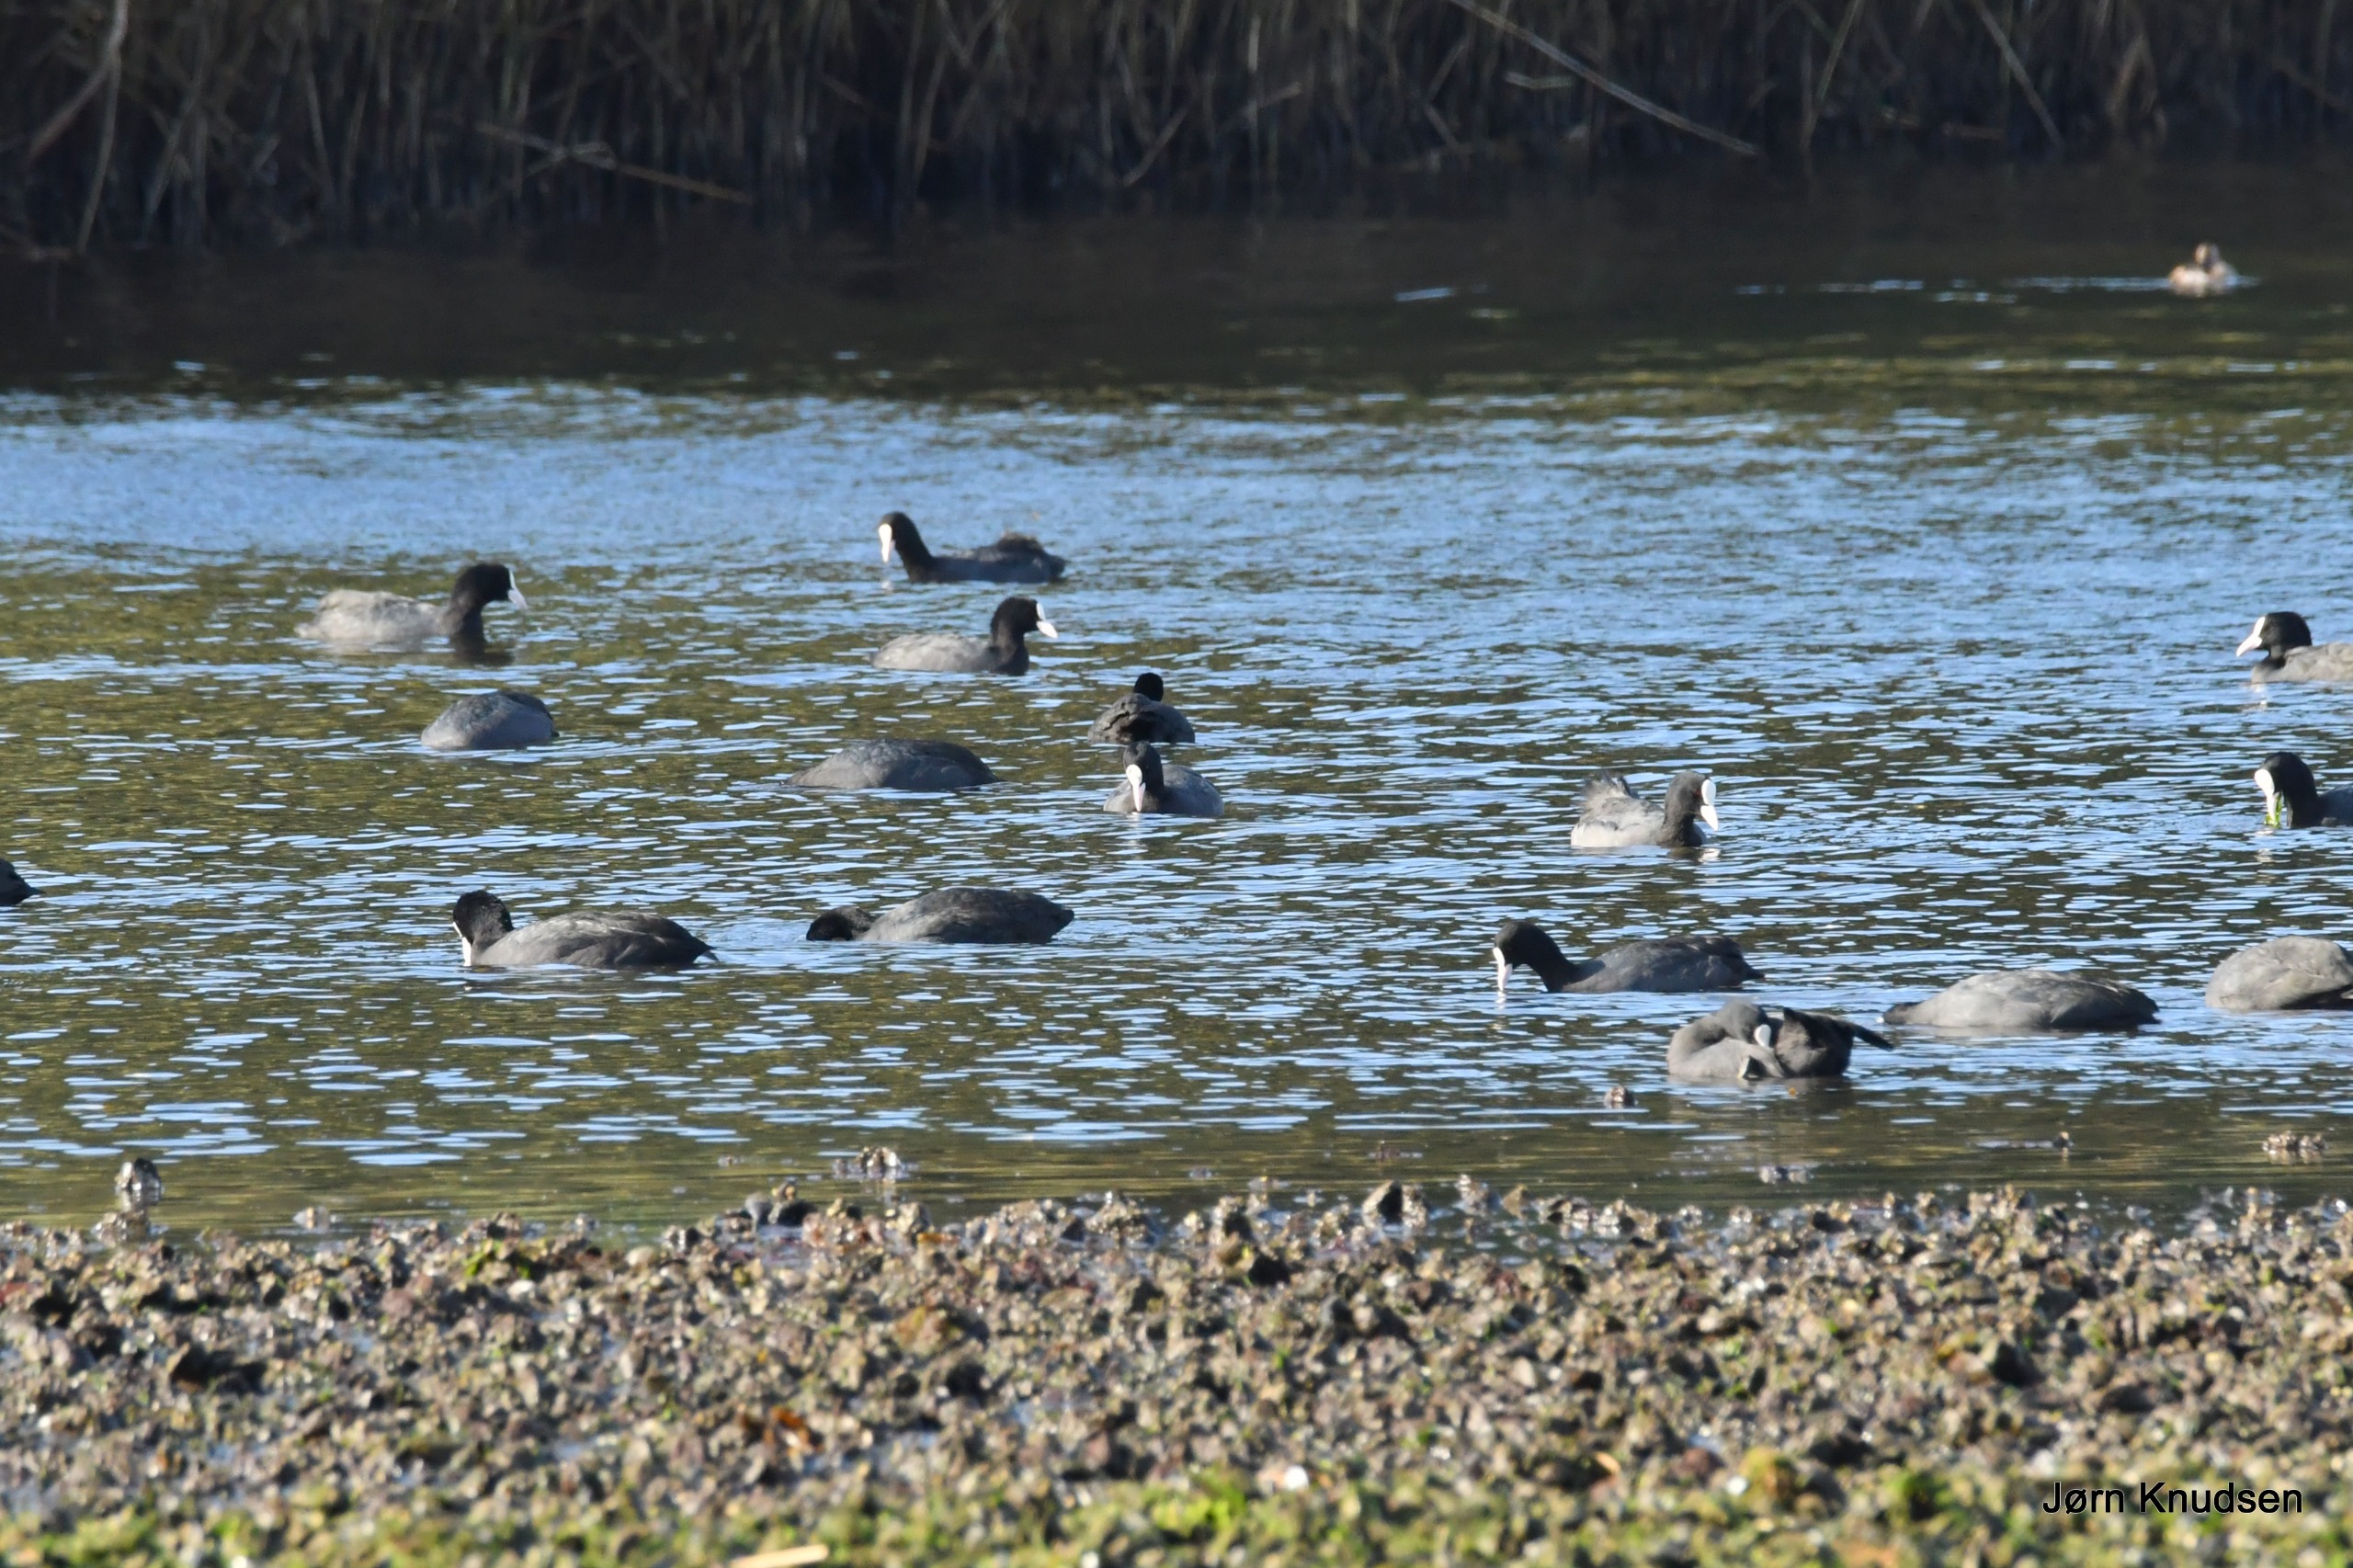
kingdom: Animalia
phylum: Chordata
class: Aves
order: Gruiformes
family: Rallidae
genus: Fulica
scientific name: Fulica atra
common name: Blishøne
